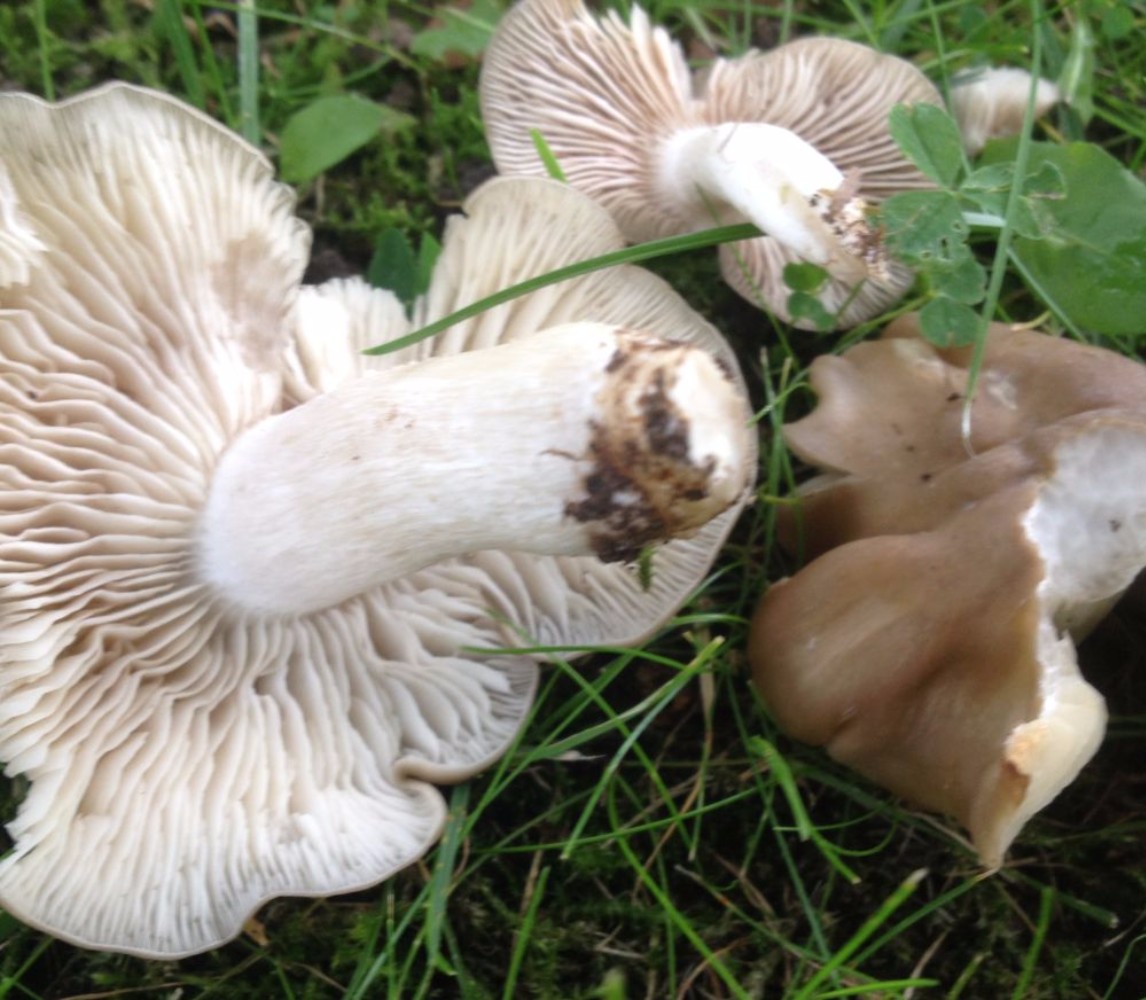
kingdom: Fungi
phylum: Basidiomycota
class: Agaricomycetes
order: Agaricales
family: Entolomataceae
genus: Entoloma
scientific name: Entoloma lividoalbum
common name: lysstokket rødblad
